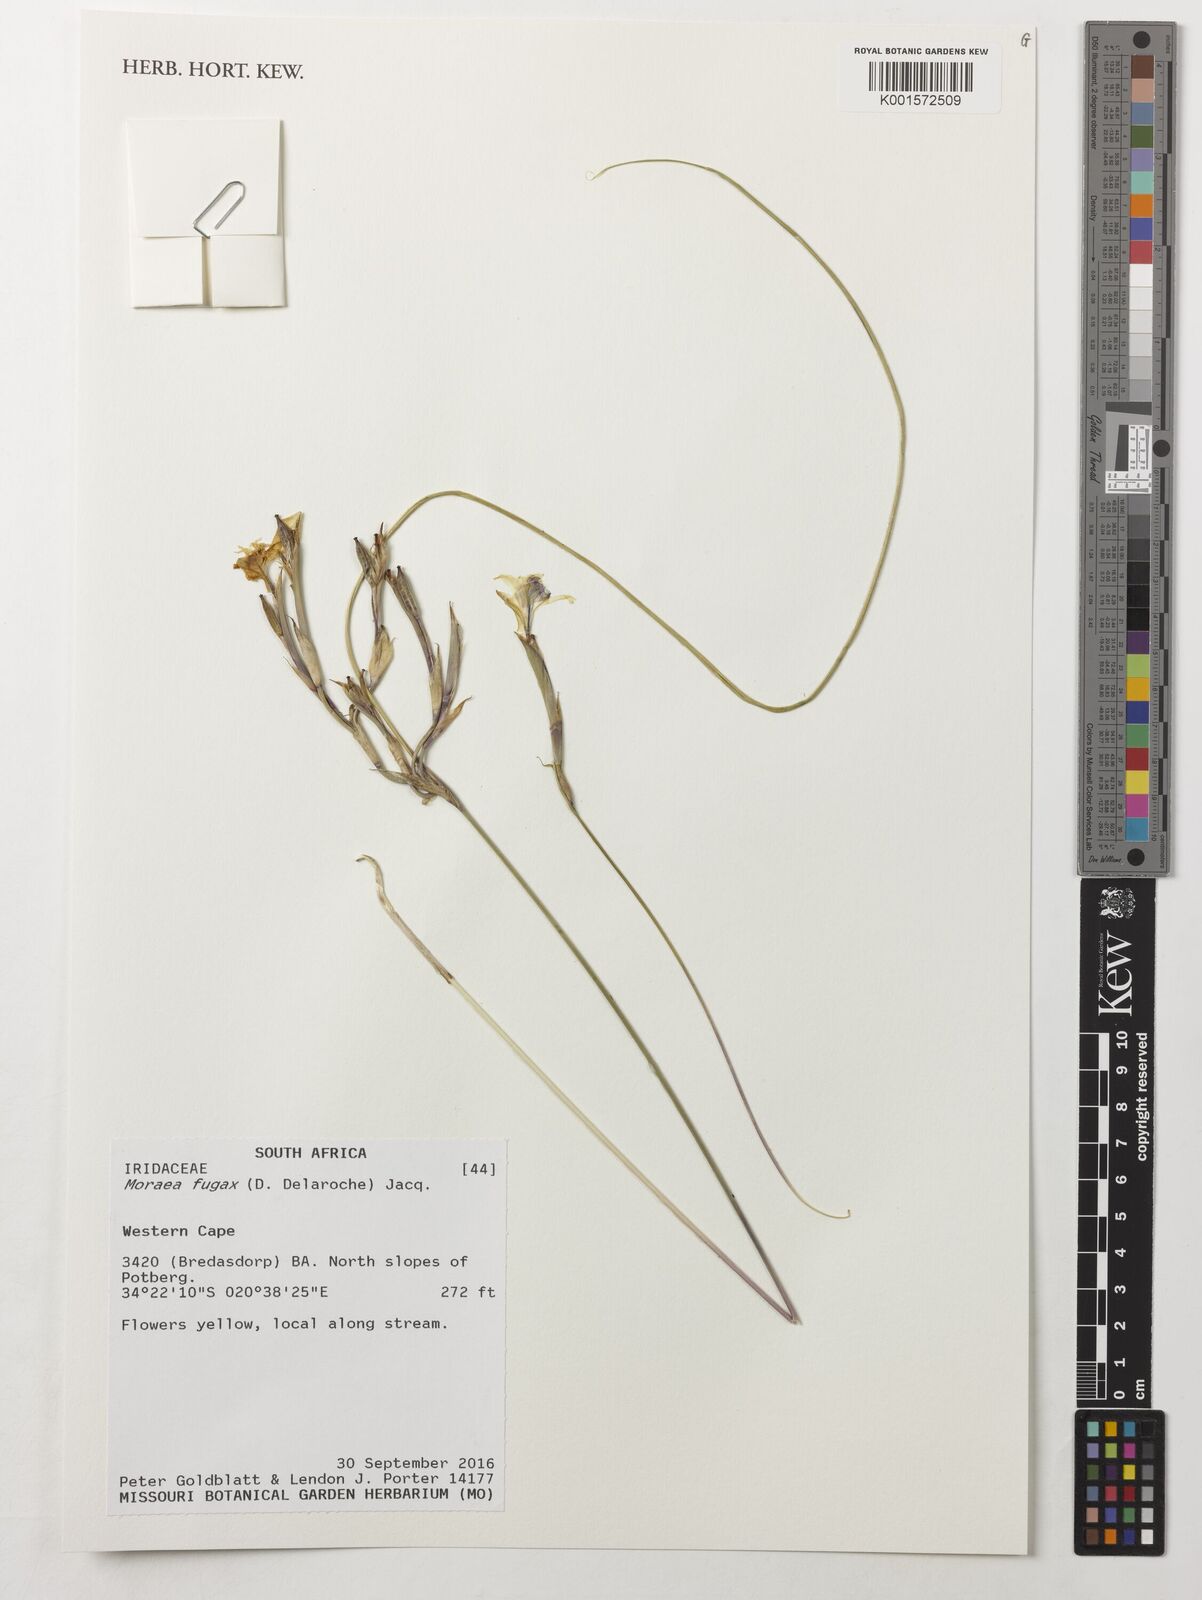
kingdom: Plantae
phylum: Tracheophyta
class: Liliopsida
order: Asparagales
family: Iridaceae
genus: Moraea
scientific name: Moraea fugax
